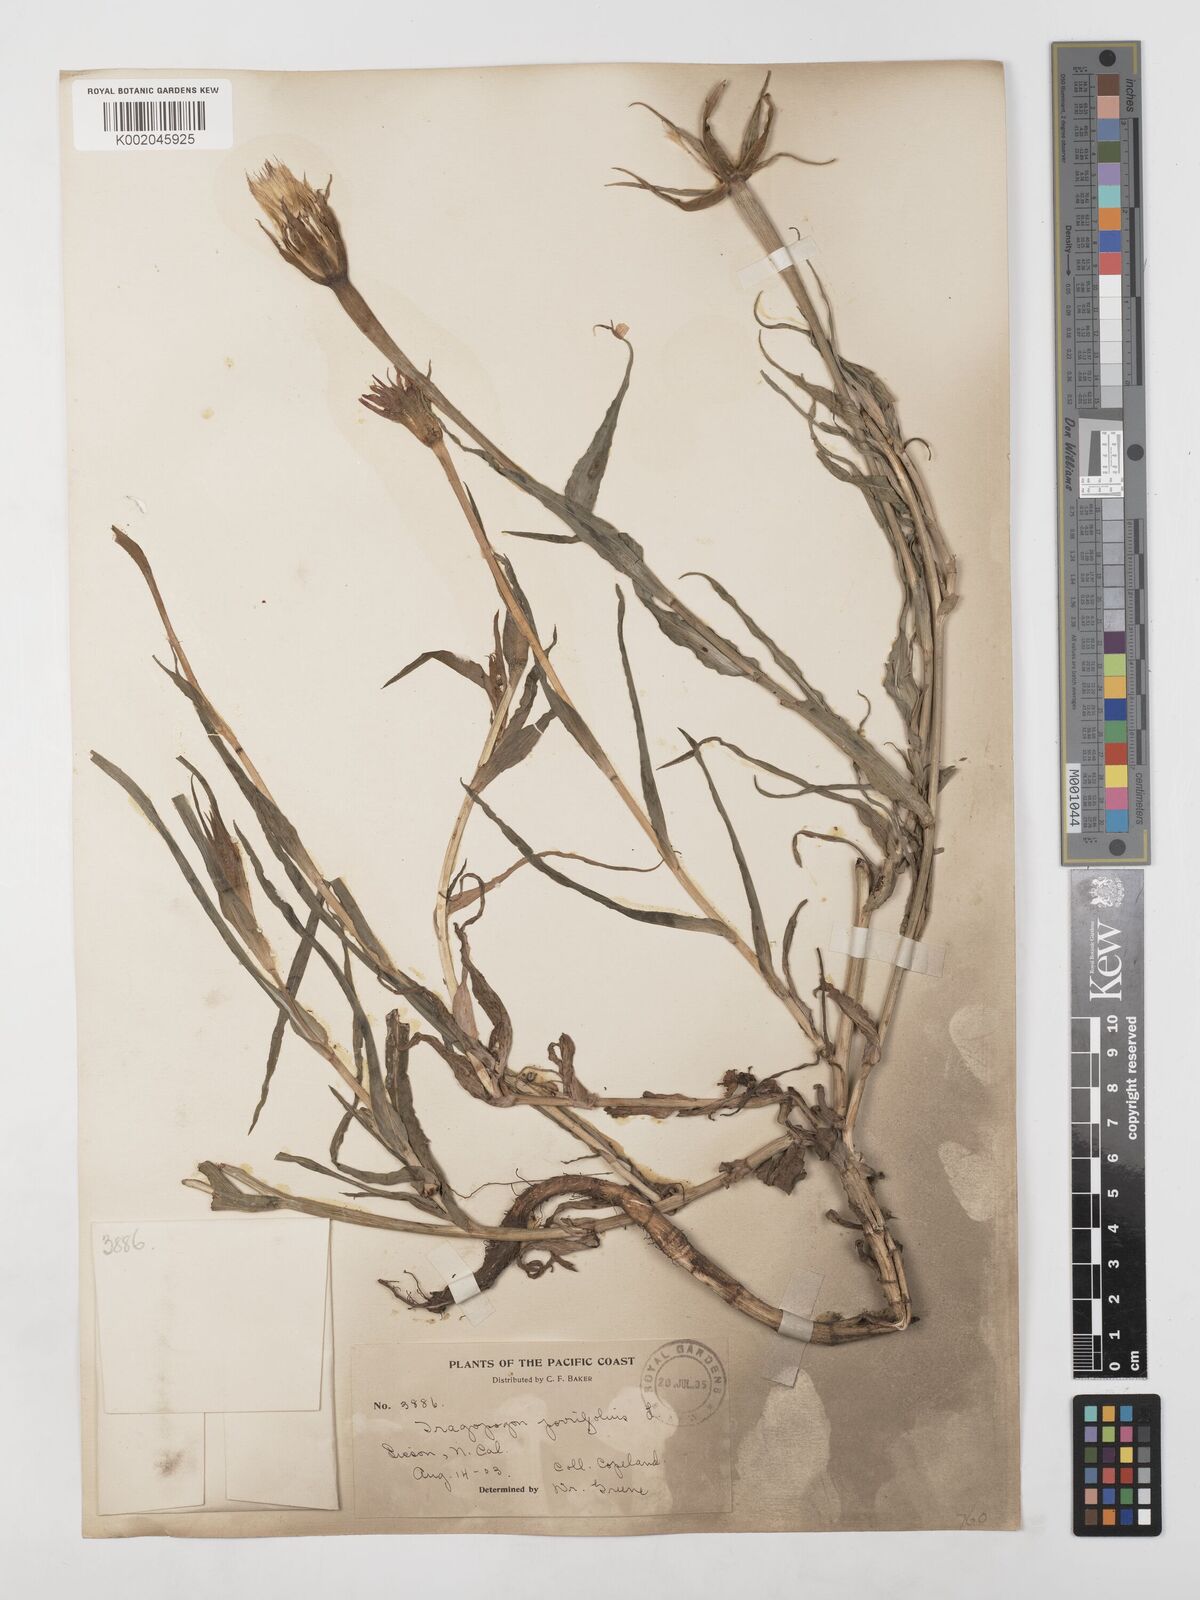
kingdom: Plantae
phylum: Tracheophyta
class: Magnoliopsida
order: Asterales
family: Asteraceae
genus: Tragopogon
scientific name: Tragopogon porrifolius
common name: Salsify
